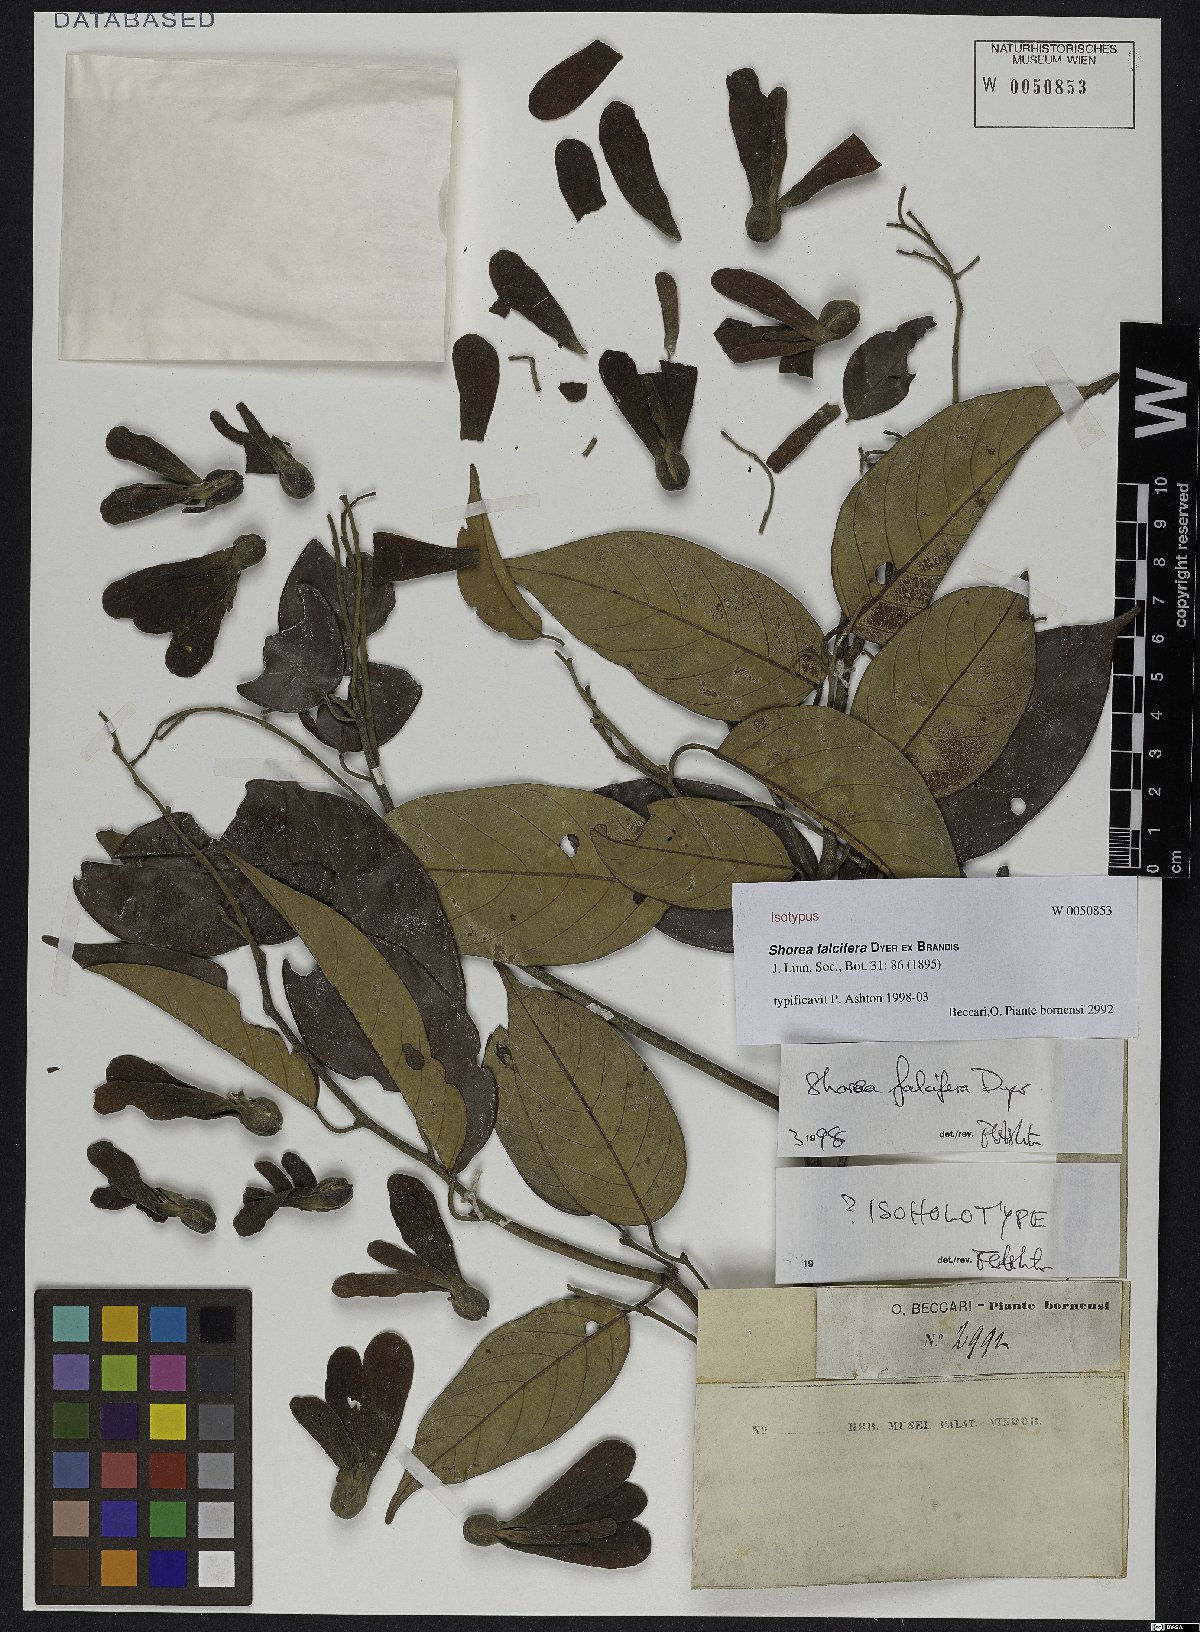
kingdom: Plantae
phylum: Tracheophyta
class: Magnoliopsida
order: Malvales
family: Dipterocarpaceae
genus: Shorea
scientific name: Shorea falcifera
